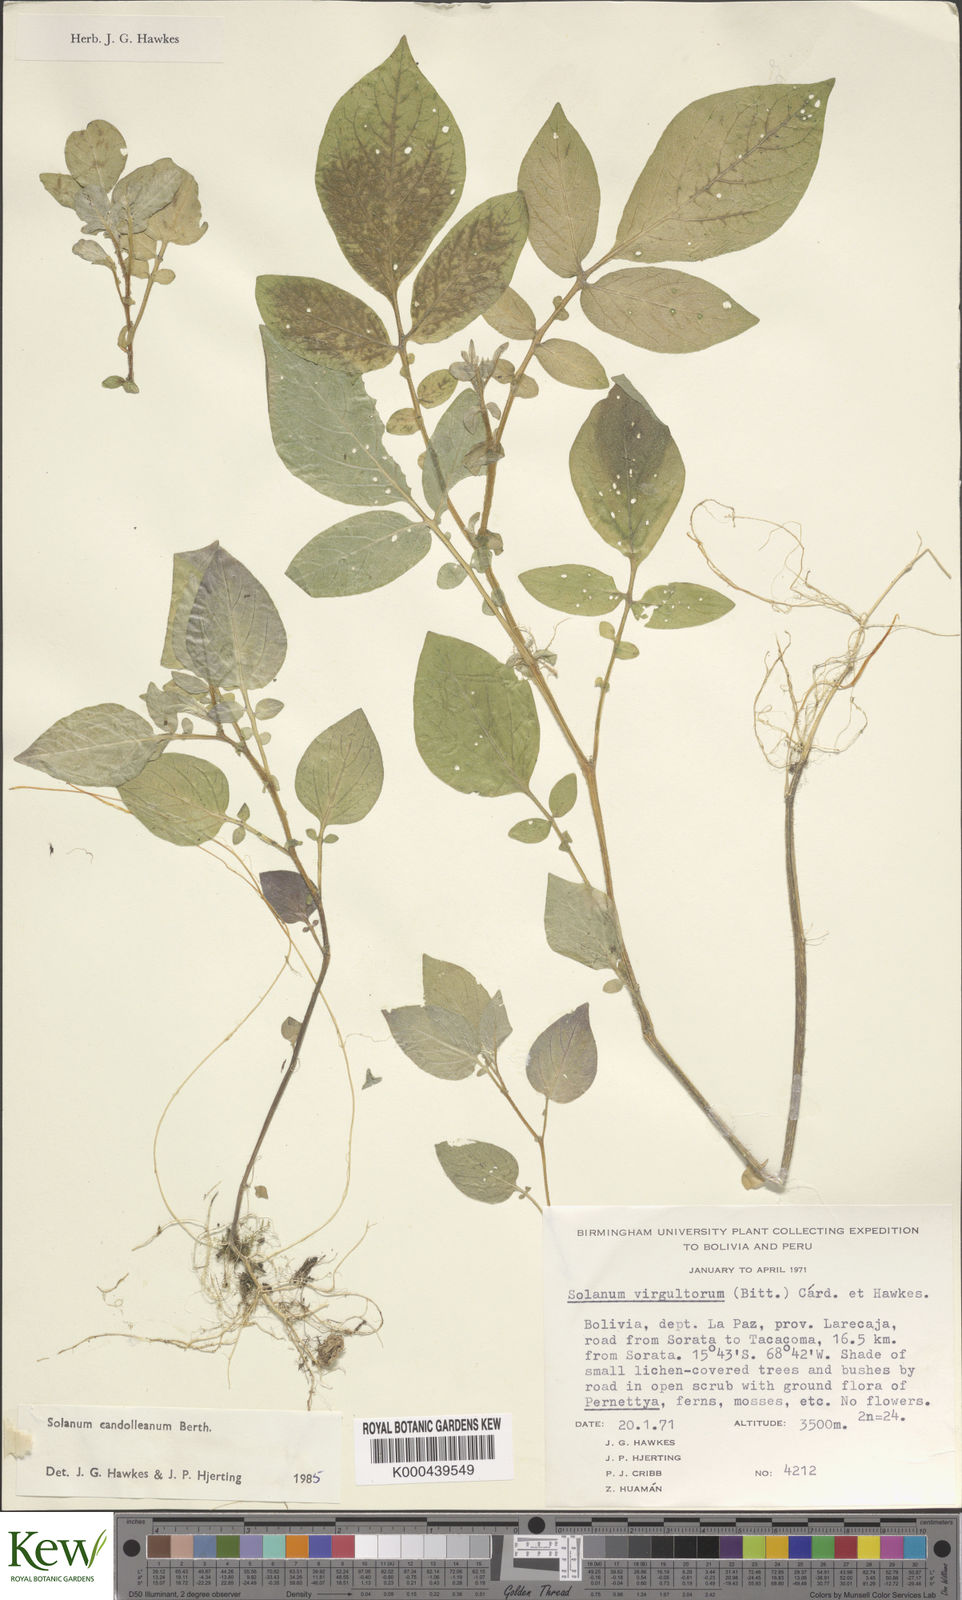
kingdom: Plantae
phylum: Tracheophyta
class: Magnoliopsida
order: Solanales
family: Solanaceae
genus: Solanum
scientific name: Solanum brevicaule
